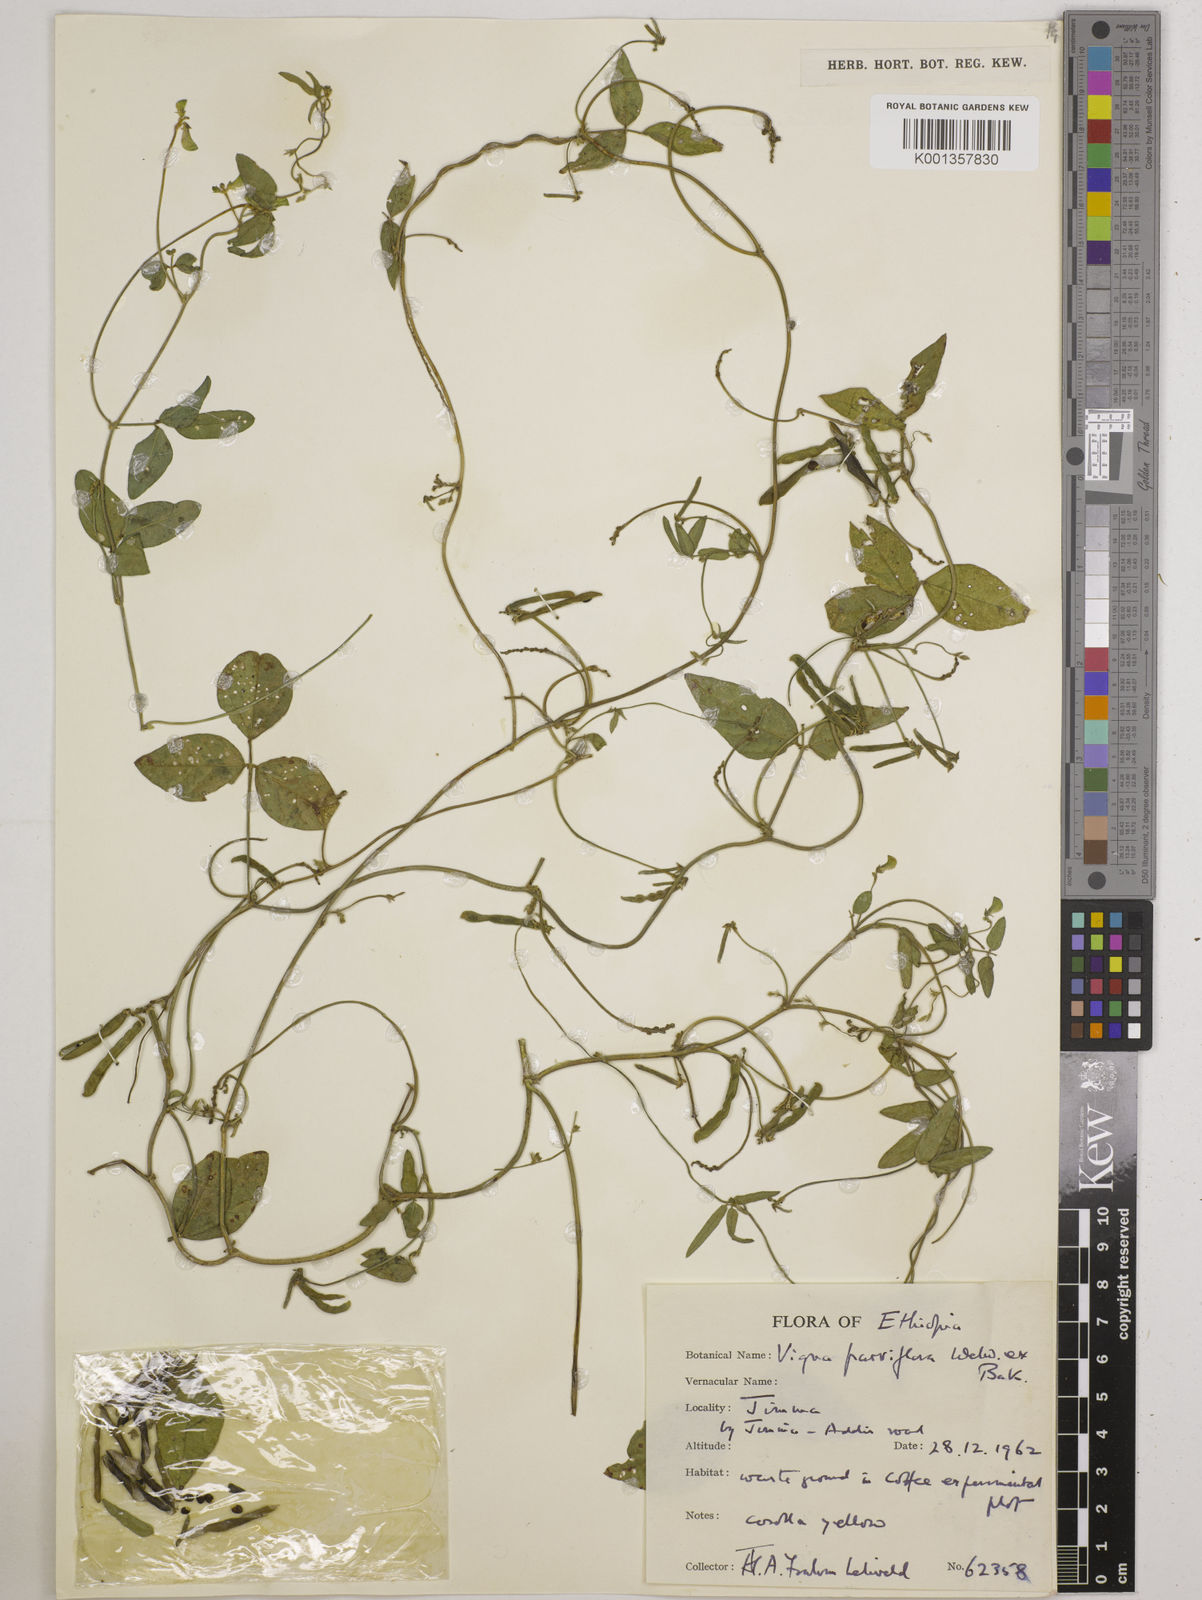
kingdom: Plantae
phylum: Tracheophyta
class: Magnoliopsida
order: Fabales
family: Fabaceae
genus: Vigna
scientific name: Vigna
